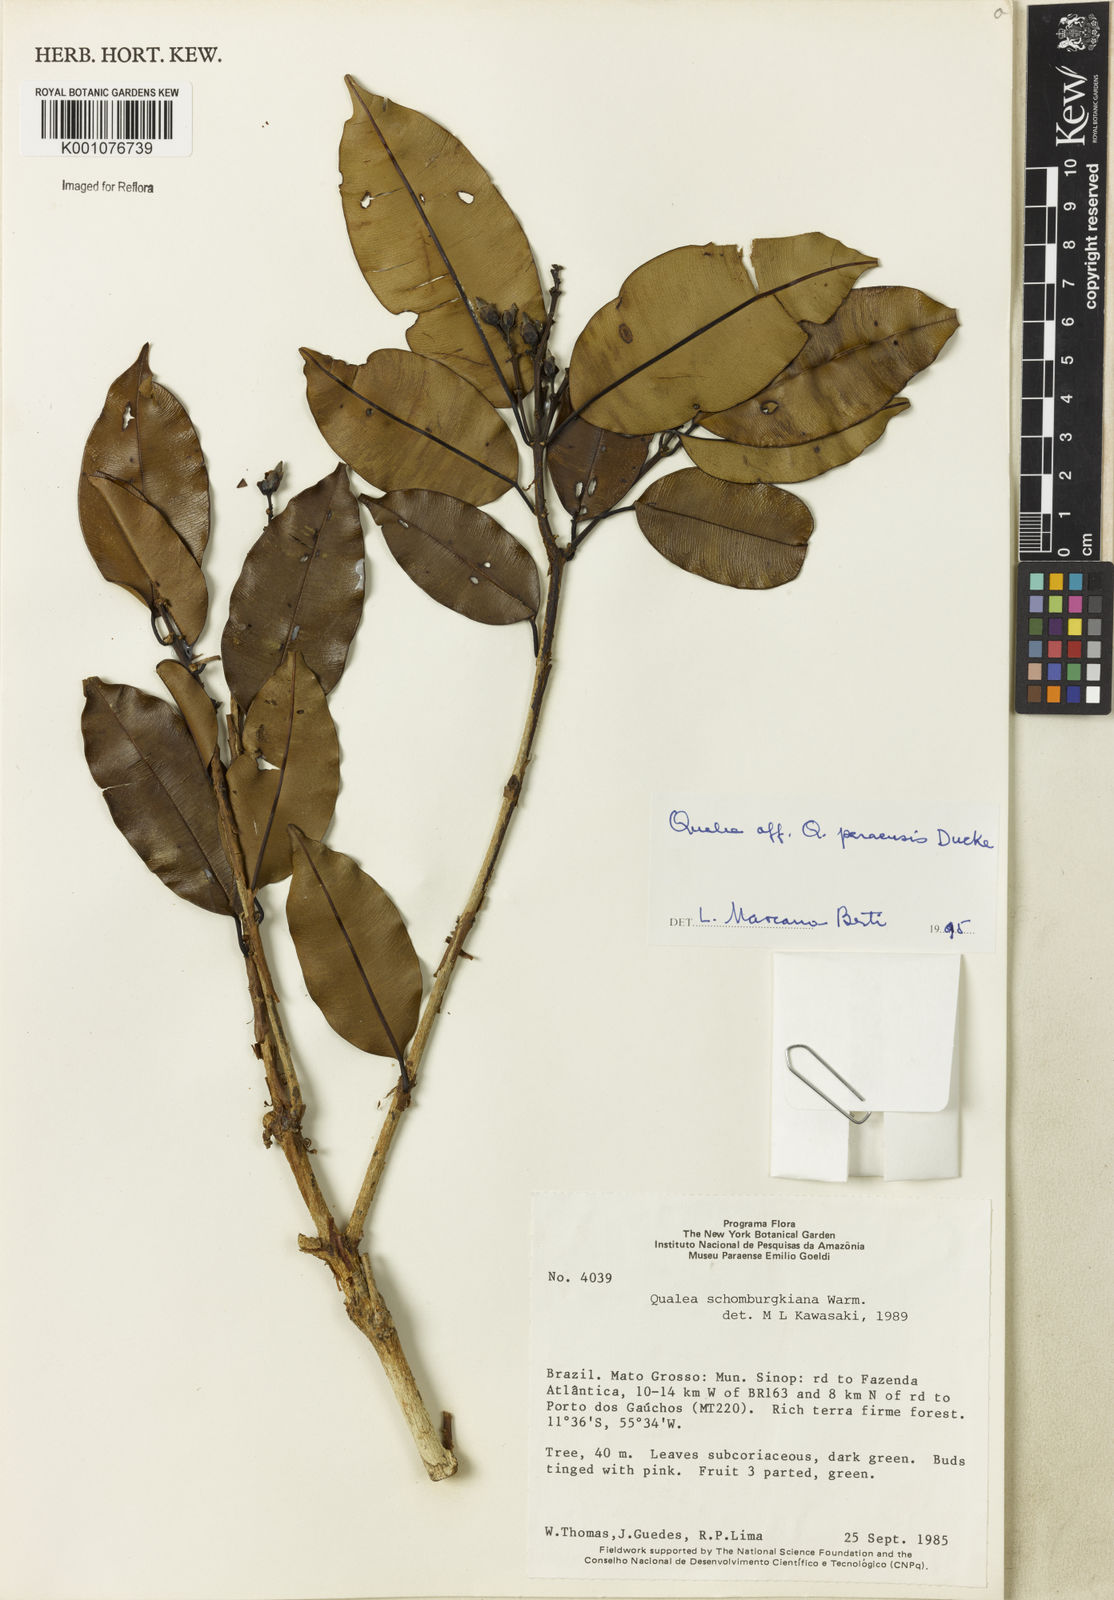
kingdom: Plantae
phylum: Tracheophyta
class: Magnoliopsida
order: Myrtales
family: Vochysiaceae
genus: Qualea
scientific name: Qualea paraensis
